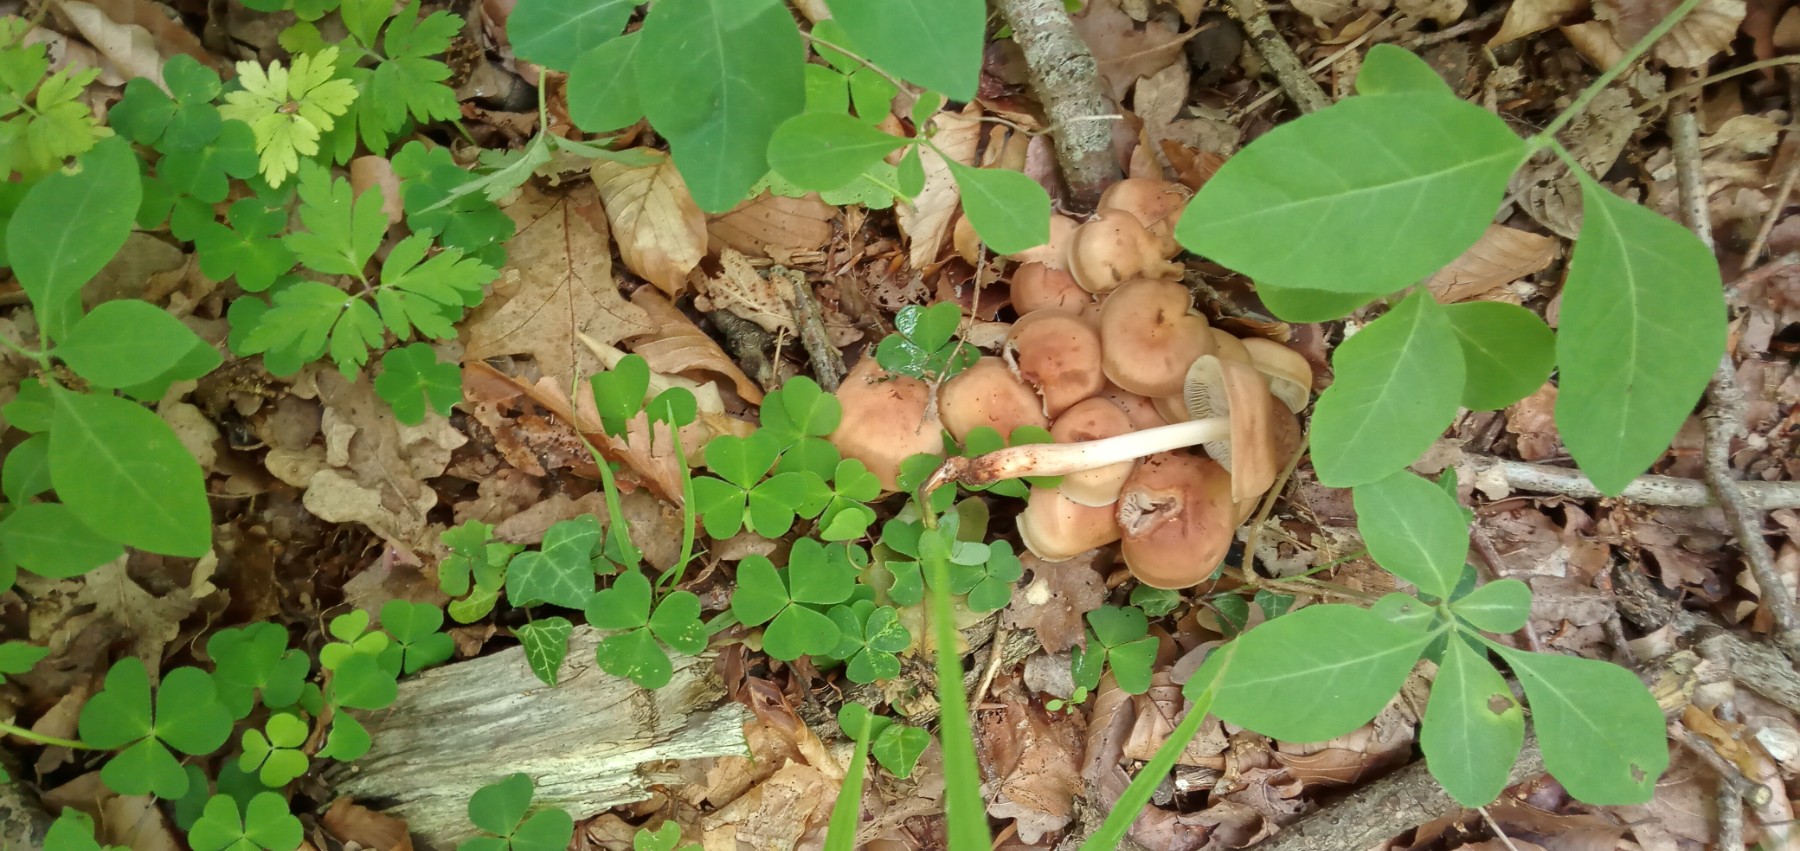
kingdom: Fungi
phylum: Basidiomycota
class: Agaricomycetes
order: Agaricales
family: Omphalotaceae
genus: Gymnopus
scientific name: Gymnopus fusipes
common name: tenstokket fladhat
